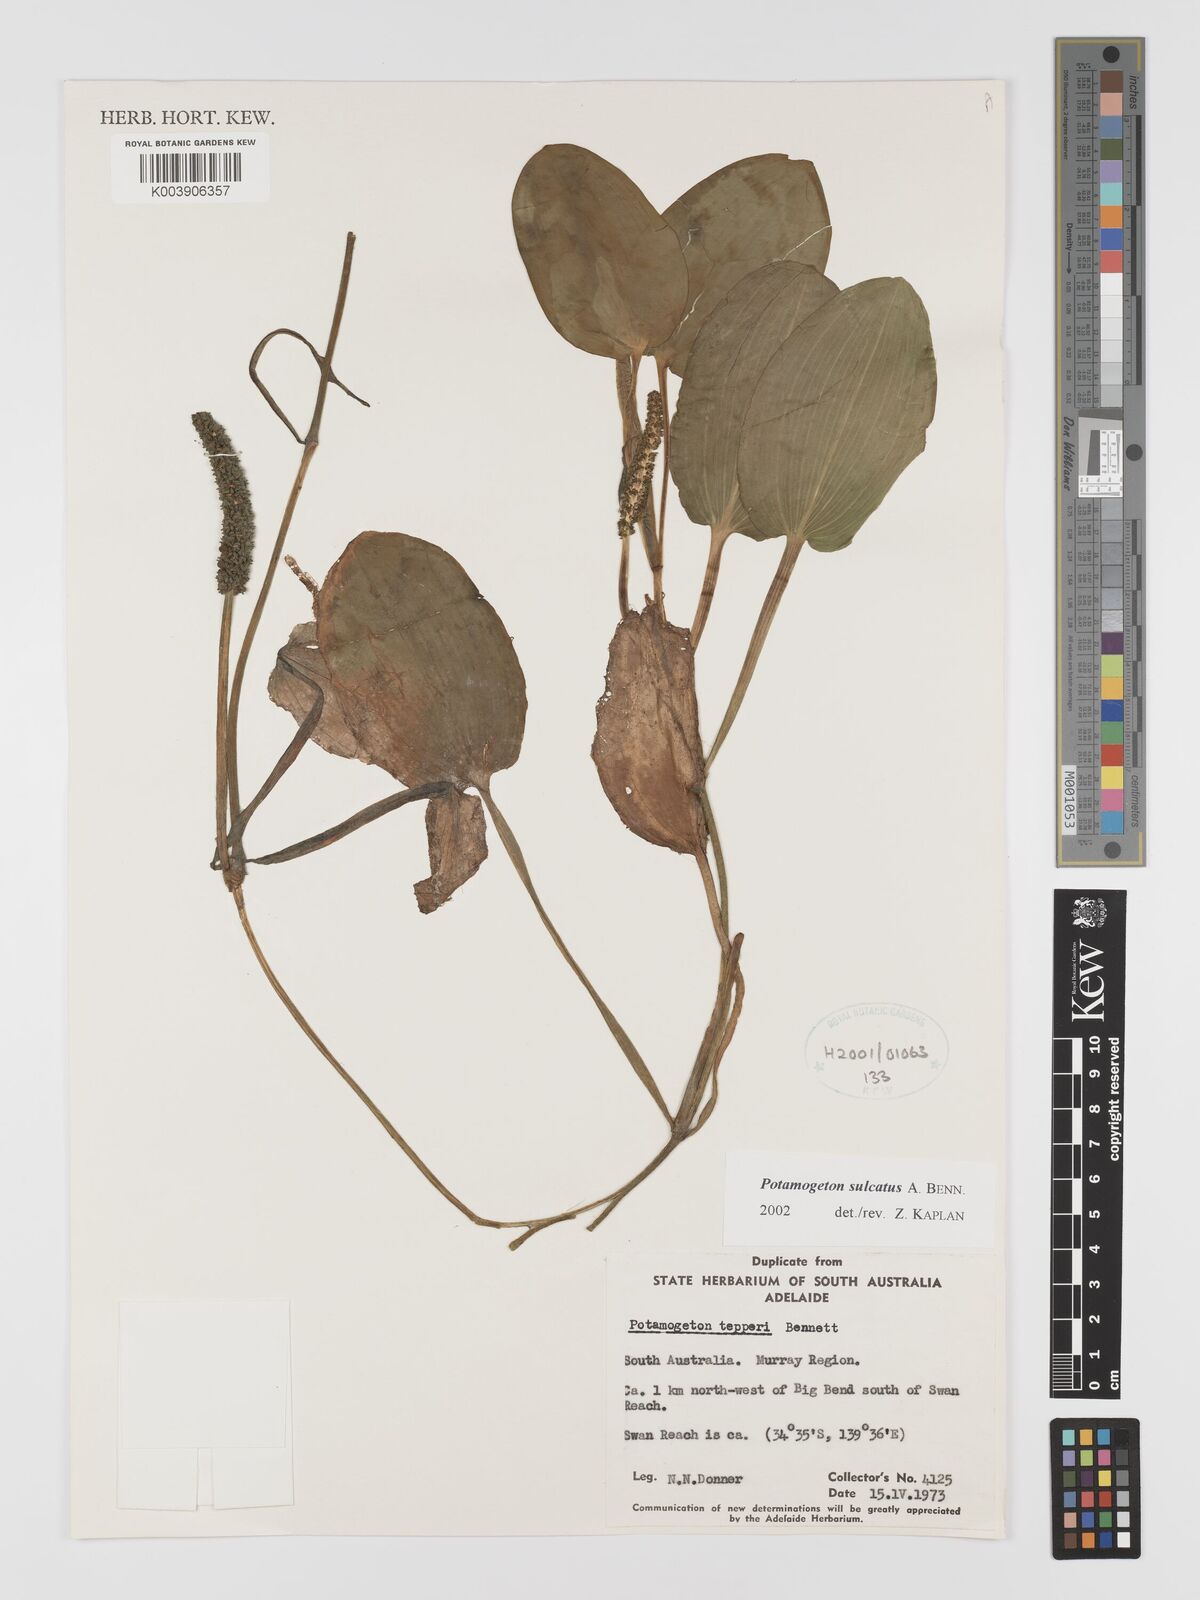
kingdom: Plantae
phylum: Tracheophyta
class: Liliopsida
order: Alismatales
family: Potamogetonaceae
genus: Potamogeton
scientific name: Potamogeton sulcatus
